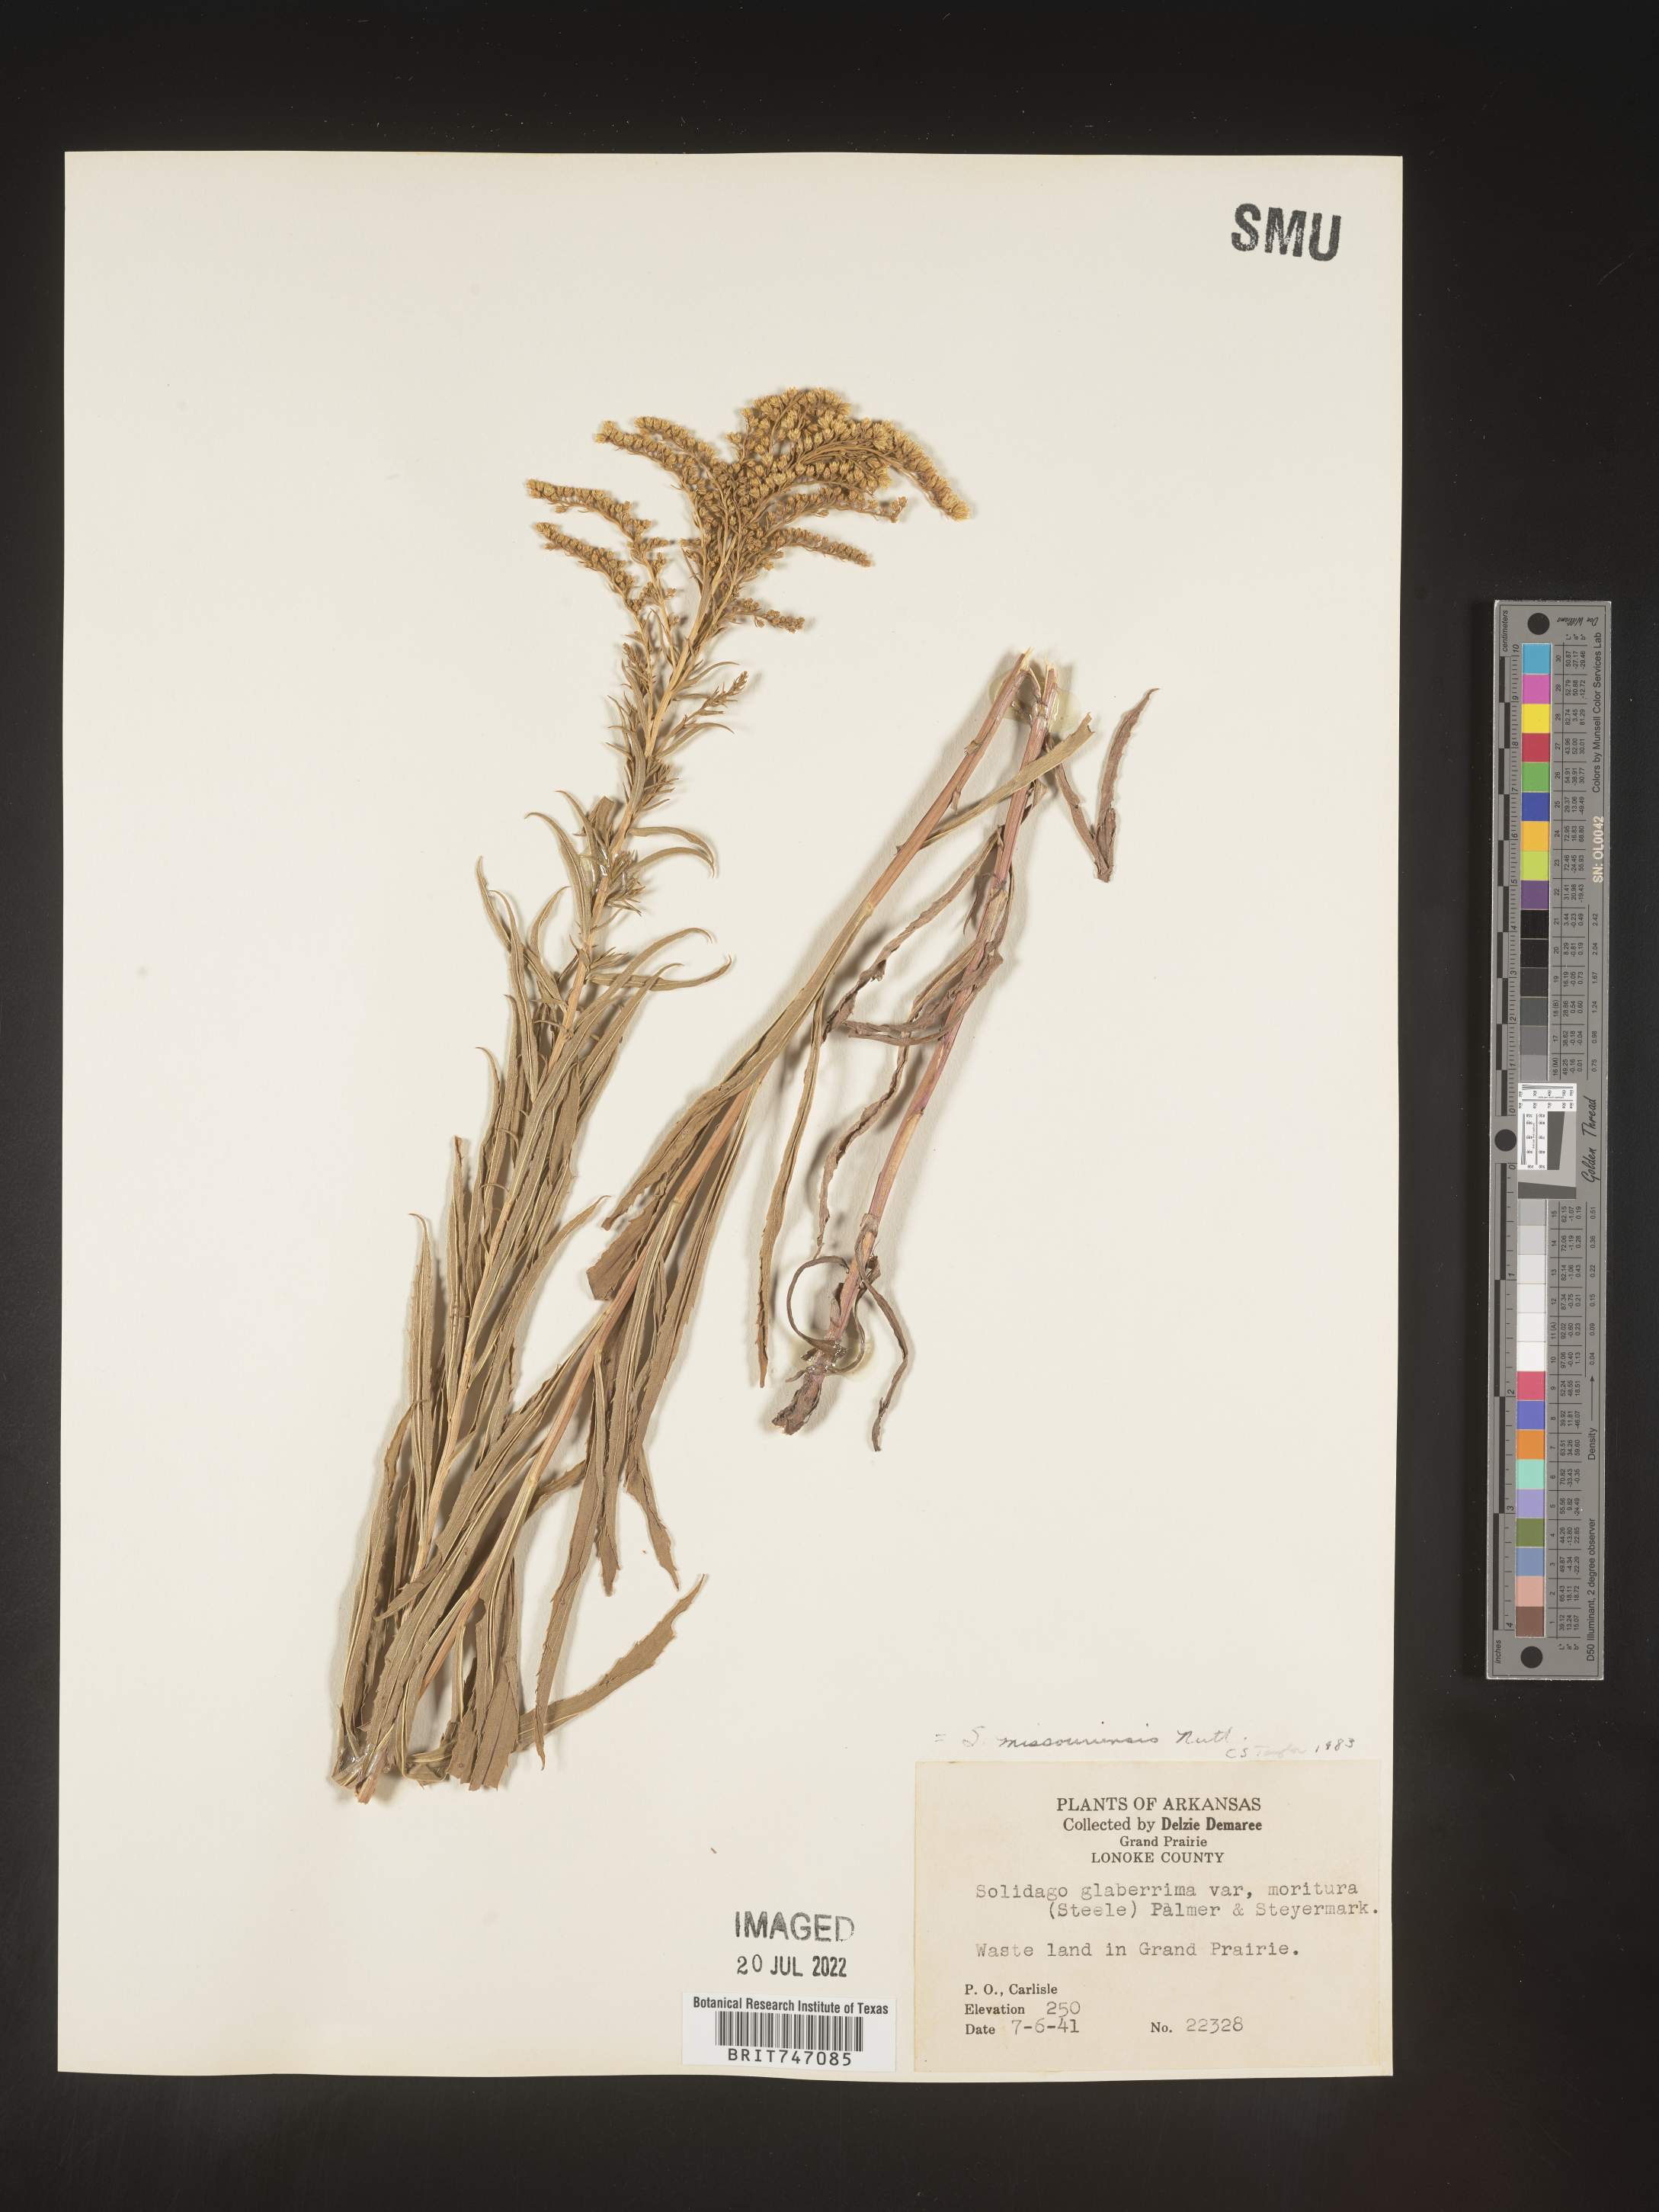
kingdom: Plantae
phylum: Tracheophyta
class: Magnoliopsida
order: Asterales
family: Asteraceae
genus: Solidago
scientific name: Solidago missouriensis
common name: Prairie goldenrod
